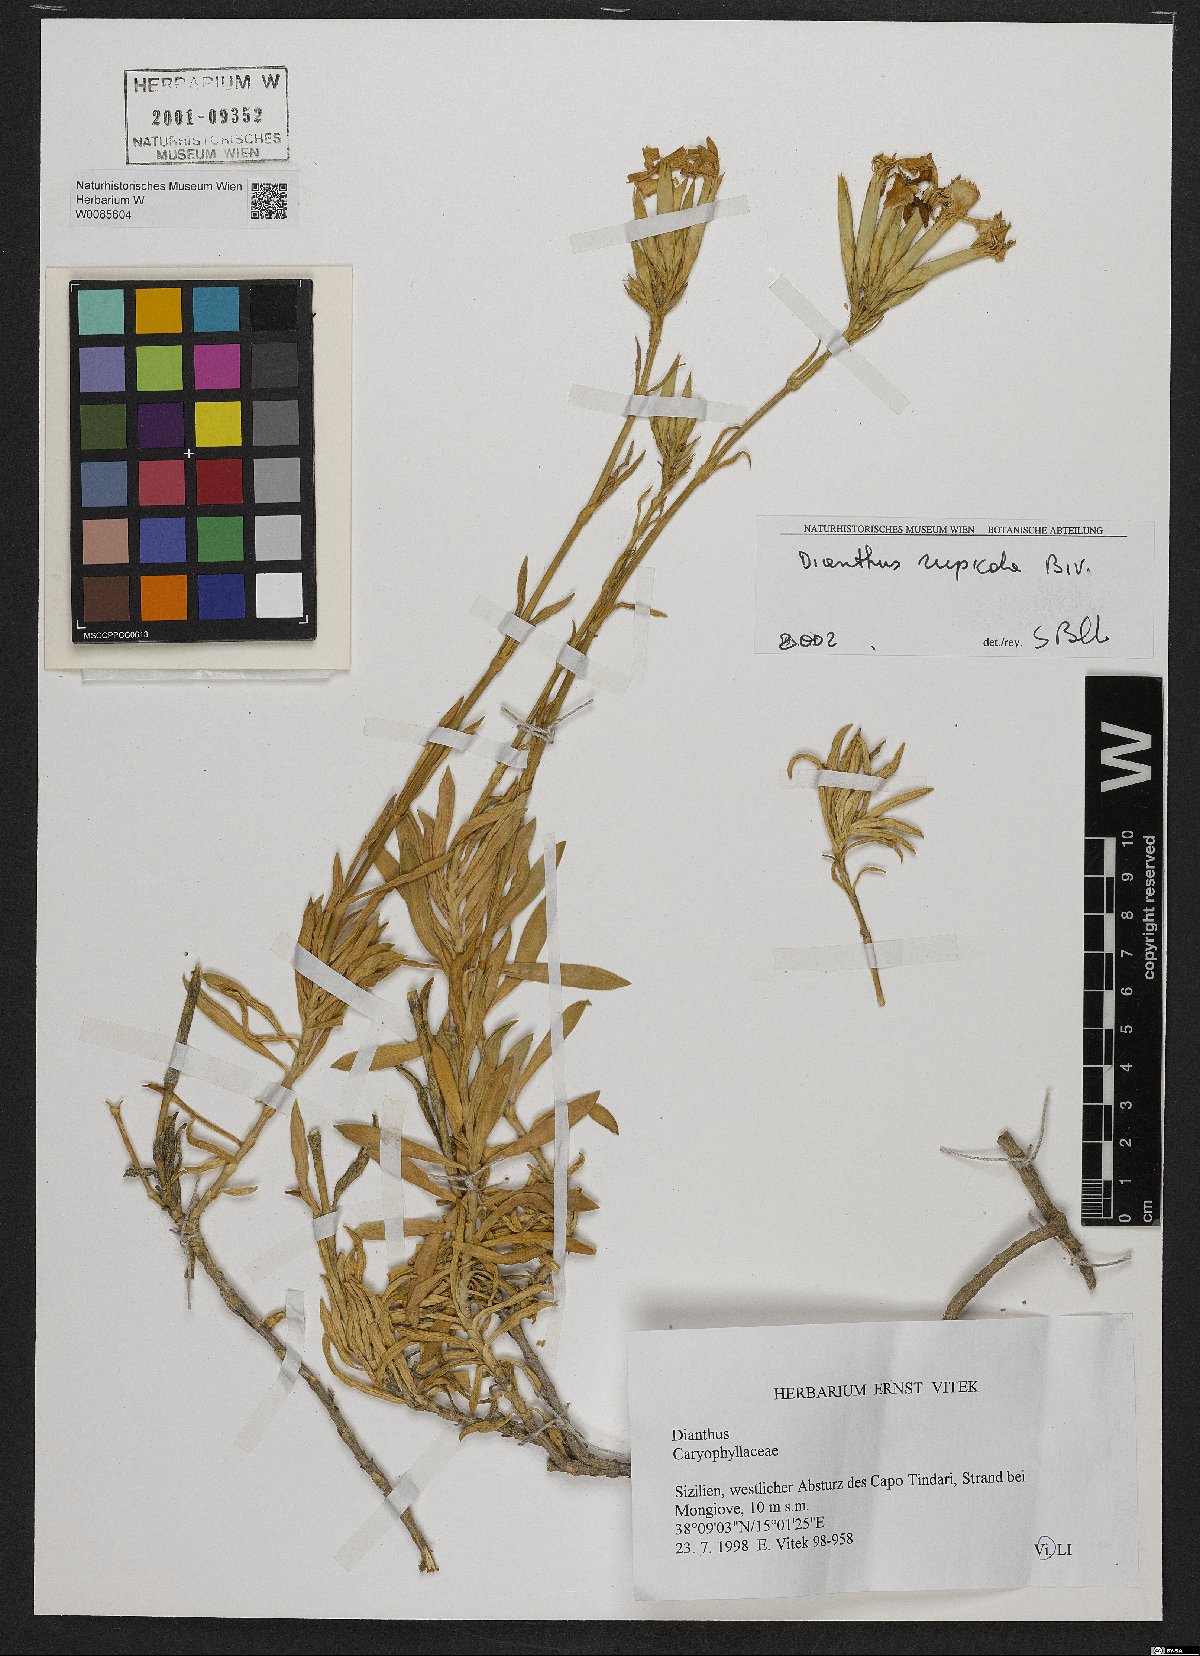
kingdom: Plantae
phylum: Tracheophyta
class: Magnoliopsida
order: Caryophyllales
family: Caryophyllaceae
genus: Dianthus
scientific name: Dianthus rupicola
